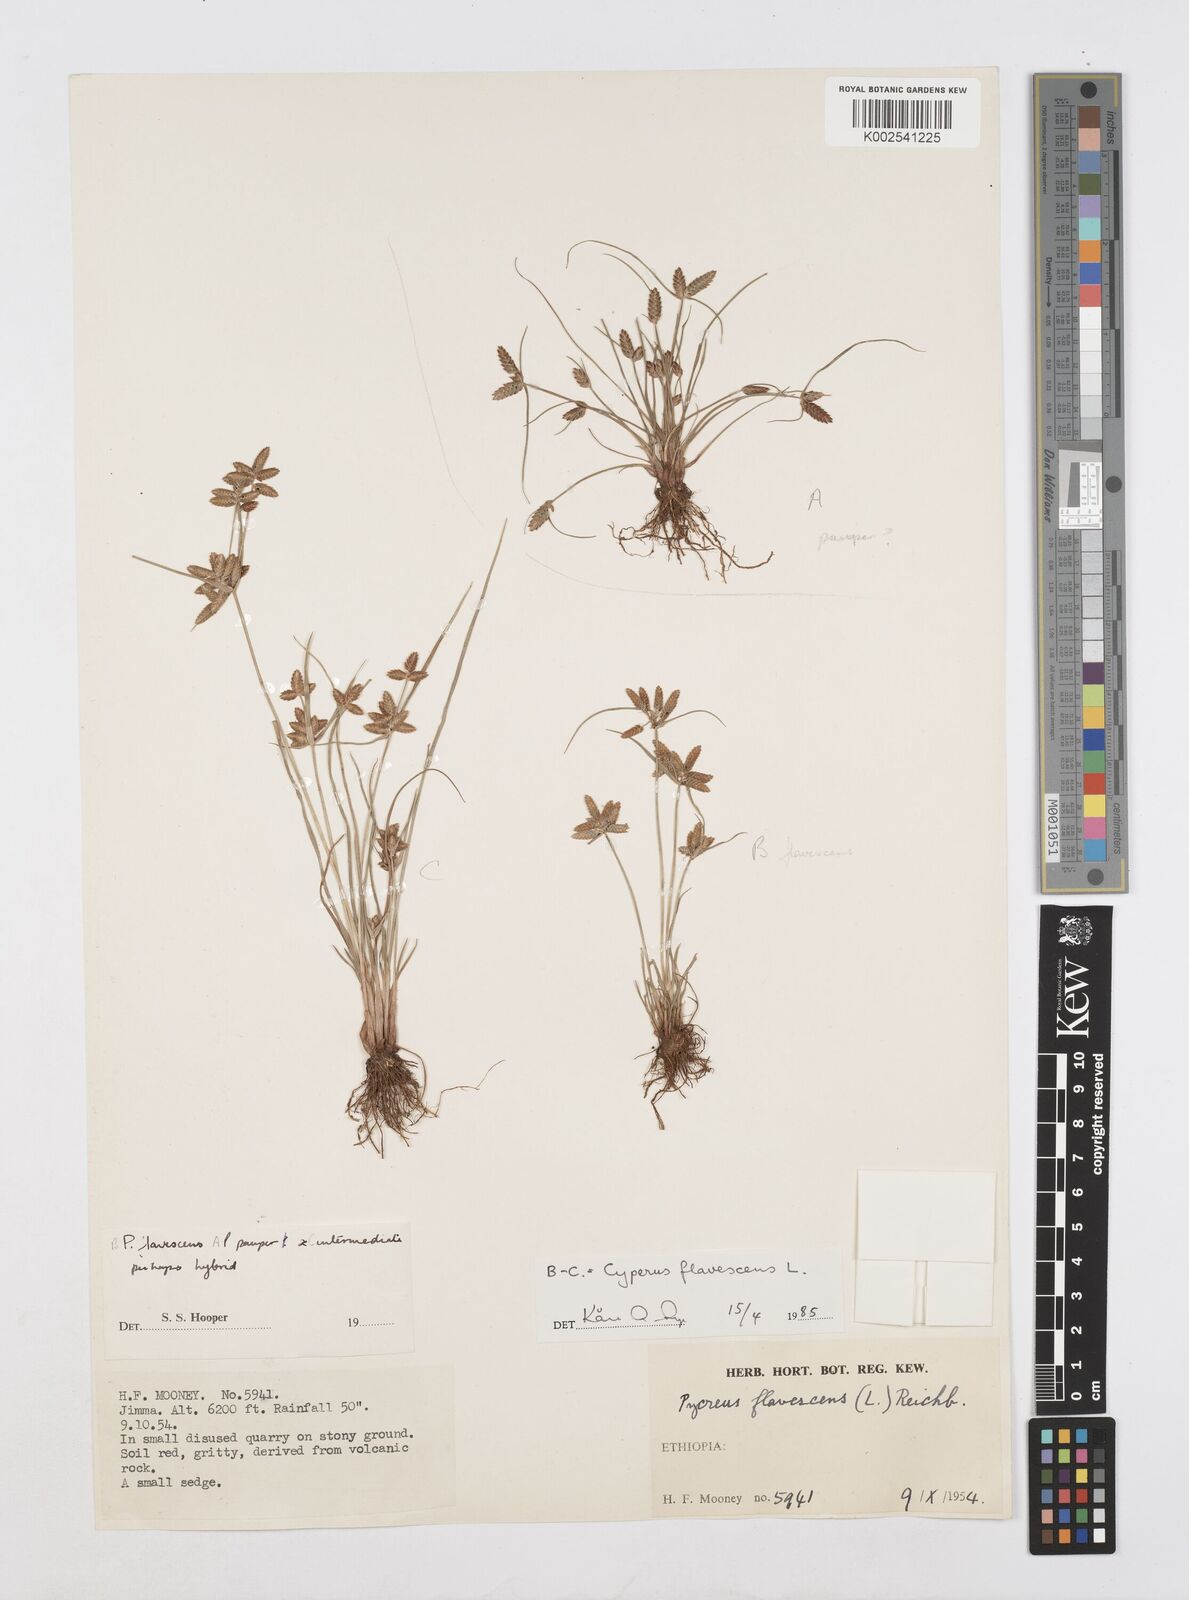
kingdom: Plantae
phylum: Tracheophyta
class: Liliopsida
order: Poales
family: Cyperaceae
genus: Cyperus
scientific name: Cyperus flavescens
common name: Yellow galingale
